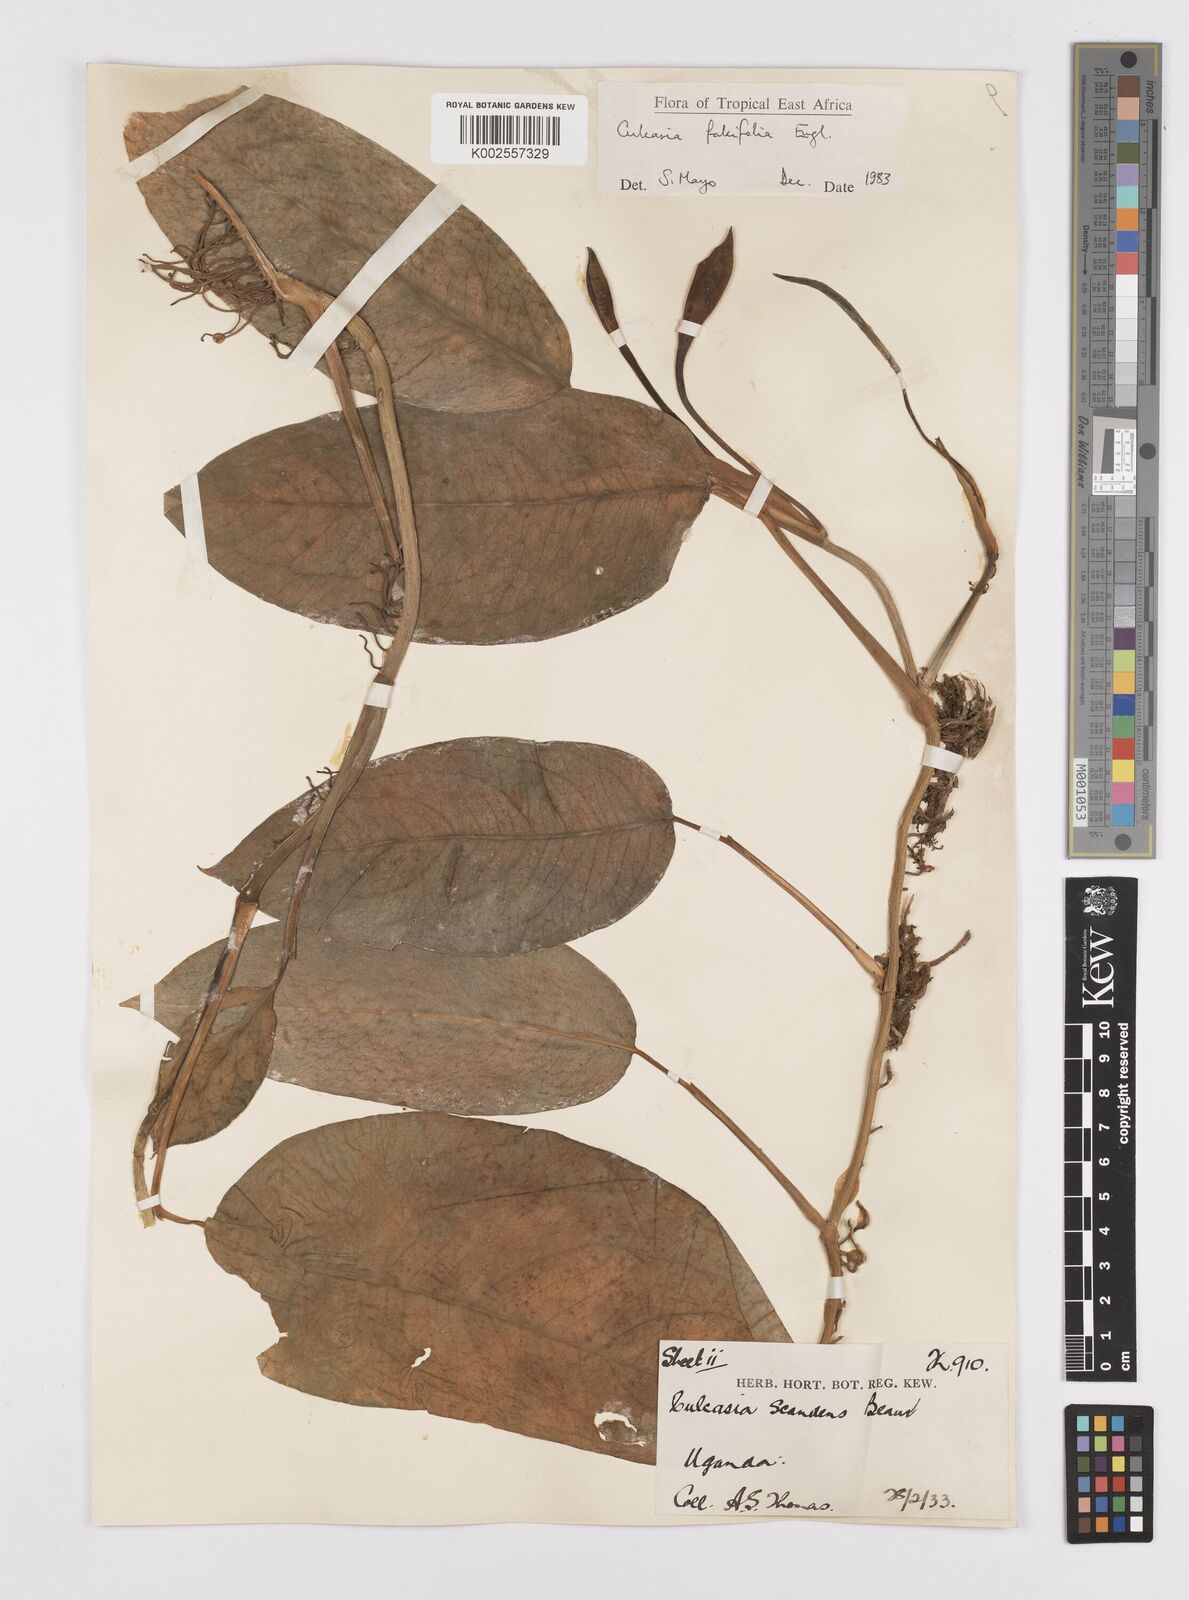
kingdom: Plantae
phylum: Tracheophyta
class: Liliopsida
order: Alismatales
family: Araceae
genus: Culcasia
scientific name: Culcasia falcifolia
